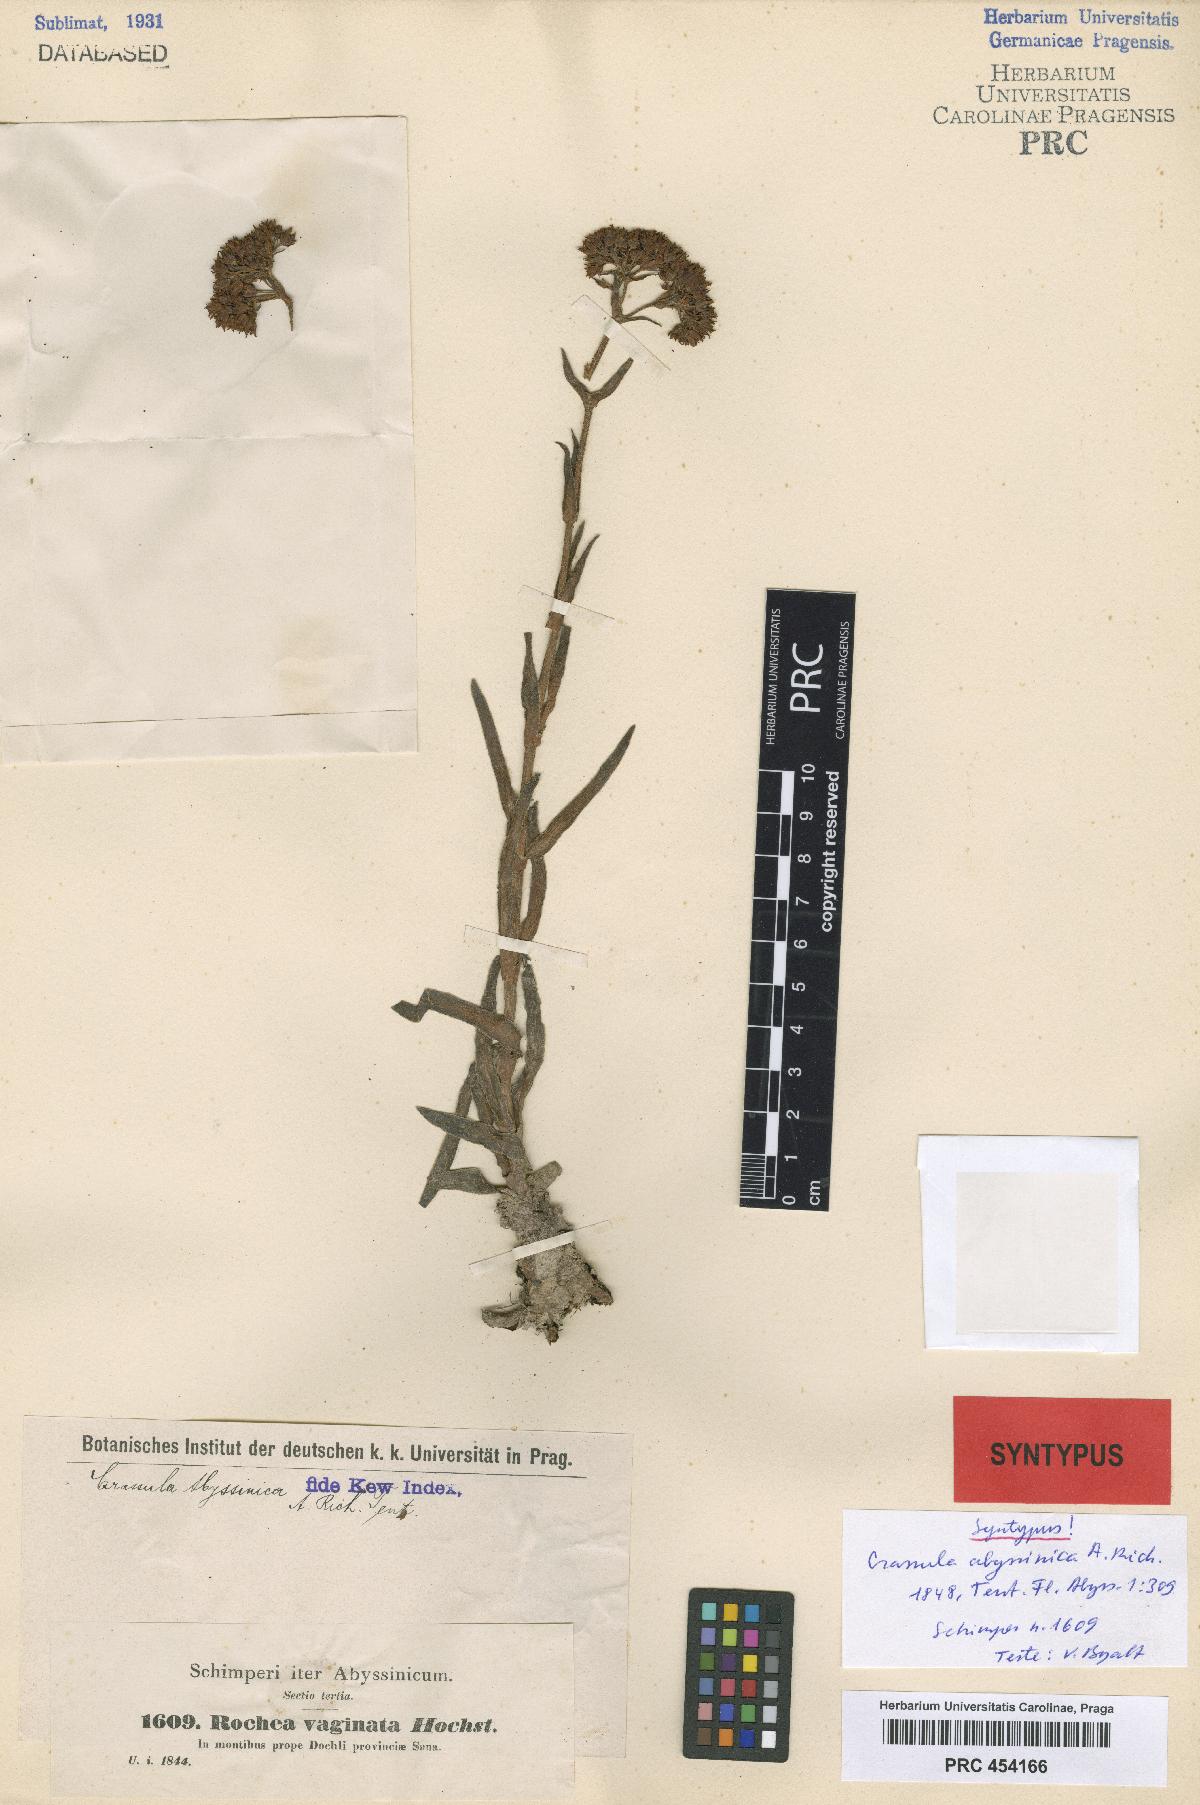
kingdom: Plantae
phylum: Tracheophyta
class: Magnoliopsida
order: Saxifragales
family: Crassulaceae
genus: Crassula
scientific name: Crassula alba
